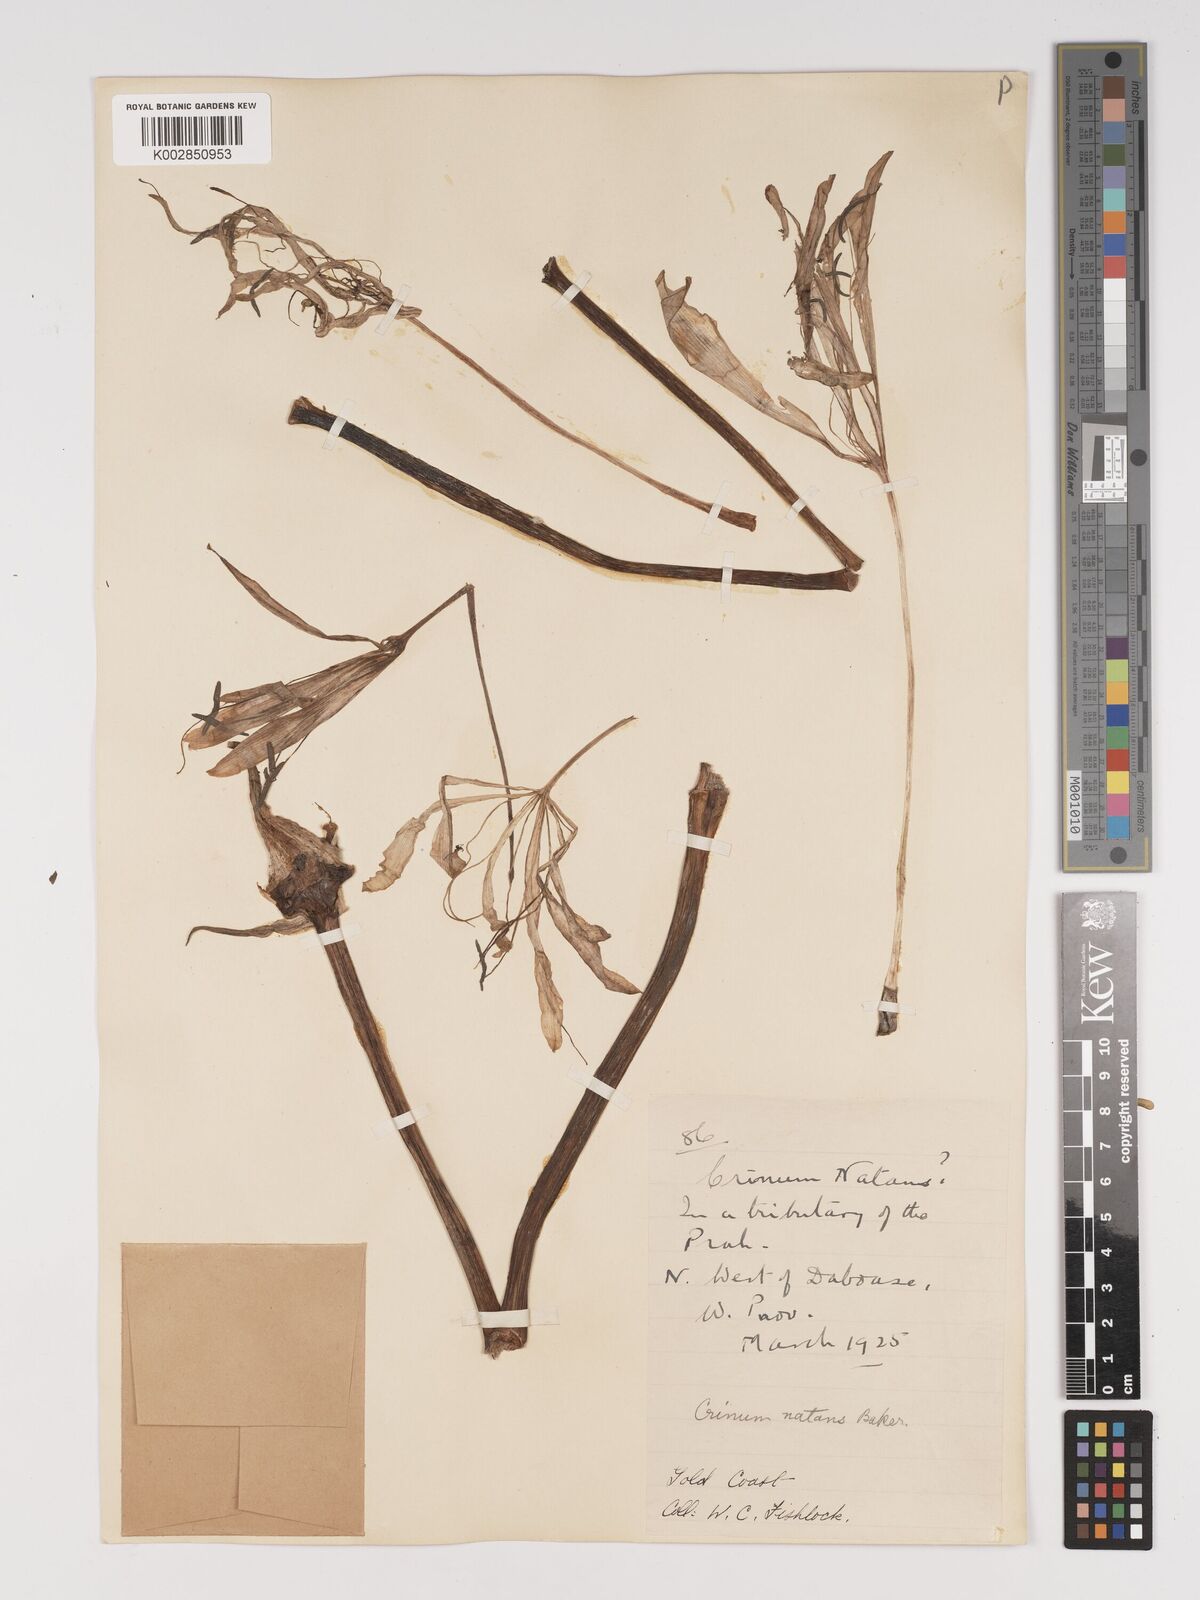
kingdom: Plantae
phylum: Tracheophyta
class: Liliopsida
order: Asparagales
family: Amaryllidaceae
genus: Crinum
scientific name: Crinum moorei
